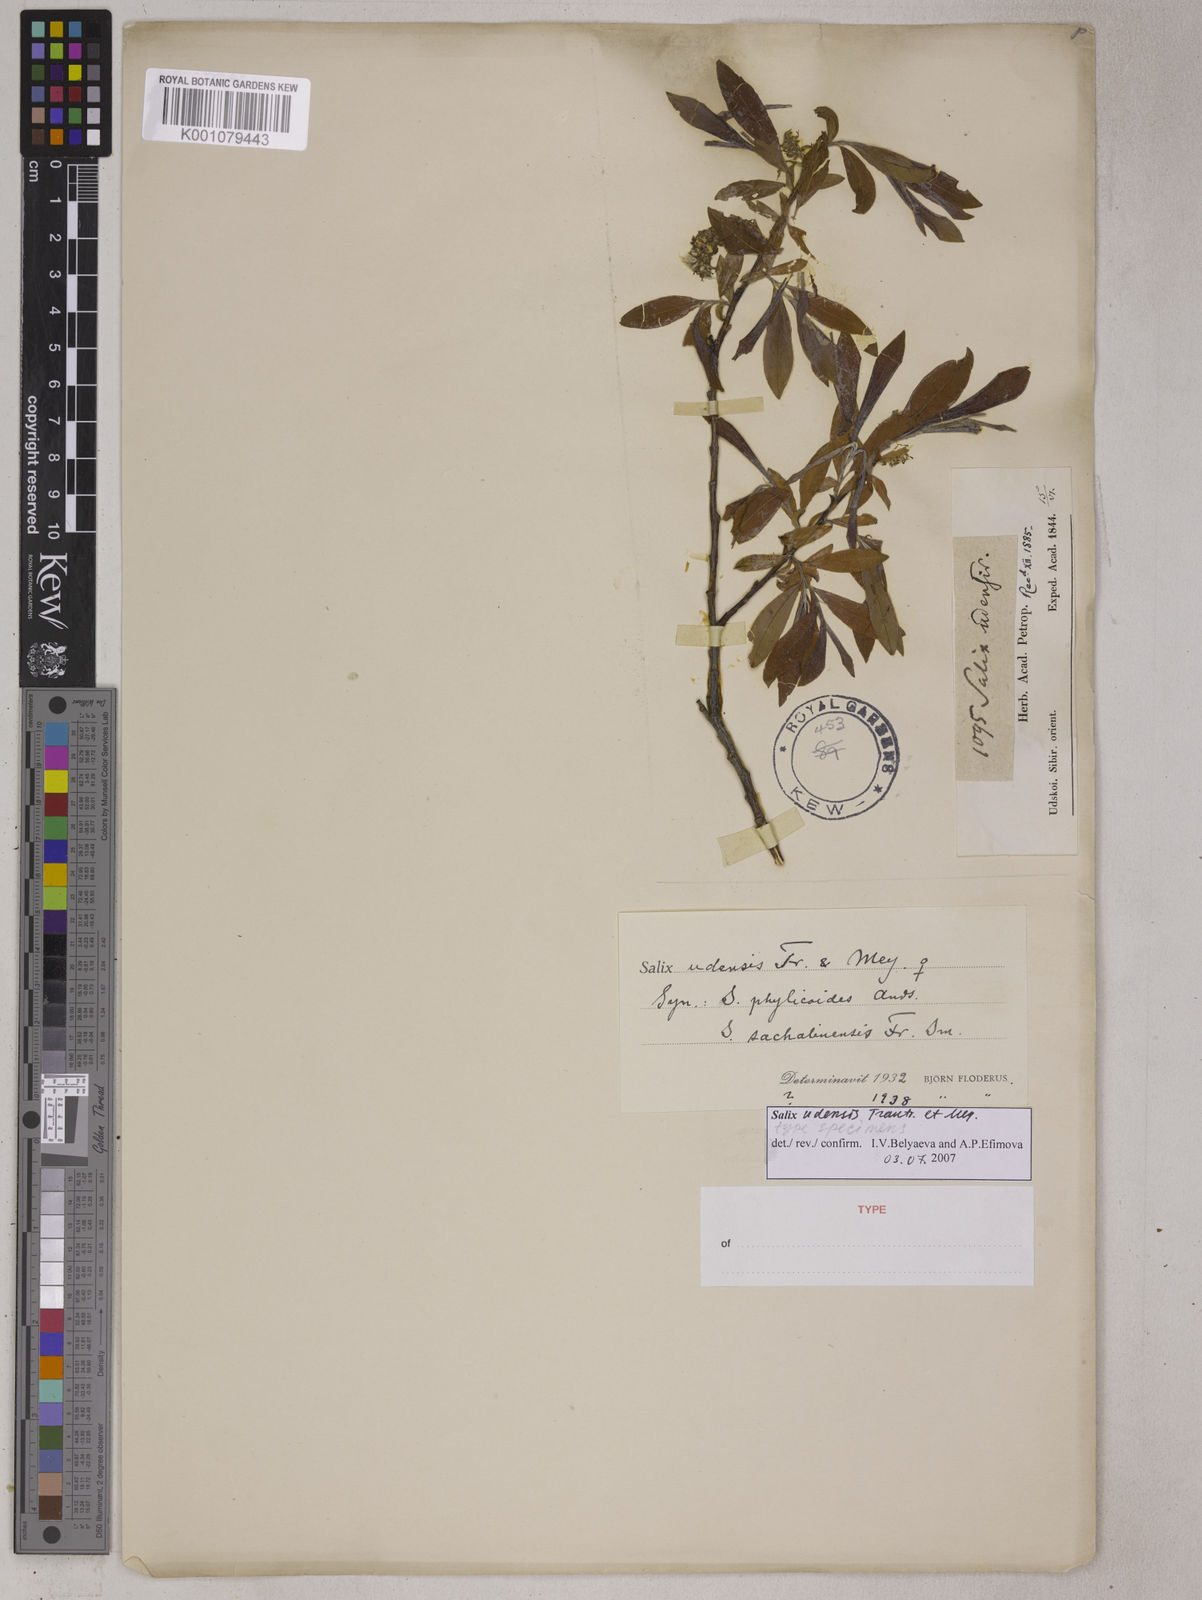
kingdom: Plantae
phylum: Tracheophyta
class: Magnoliopsida
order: Malpighiales
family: Salicaceae
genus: Salix
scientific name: Salix udensis
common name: Sachalin willow
